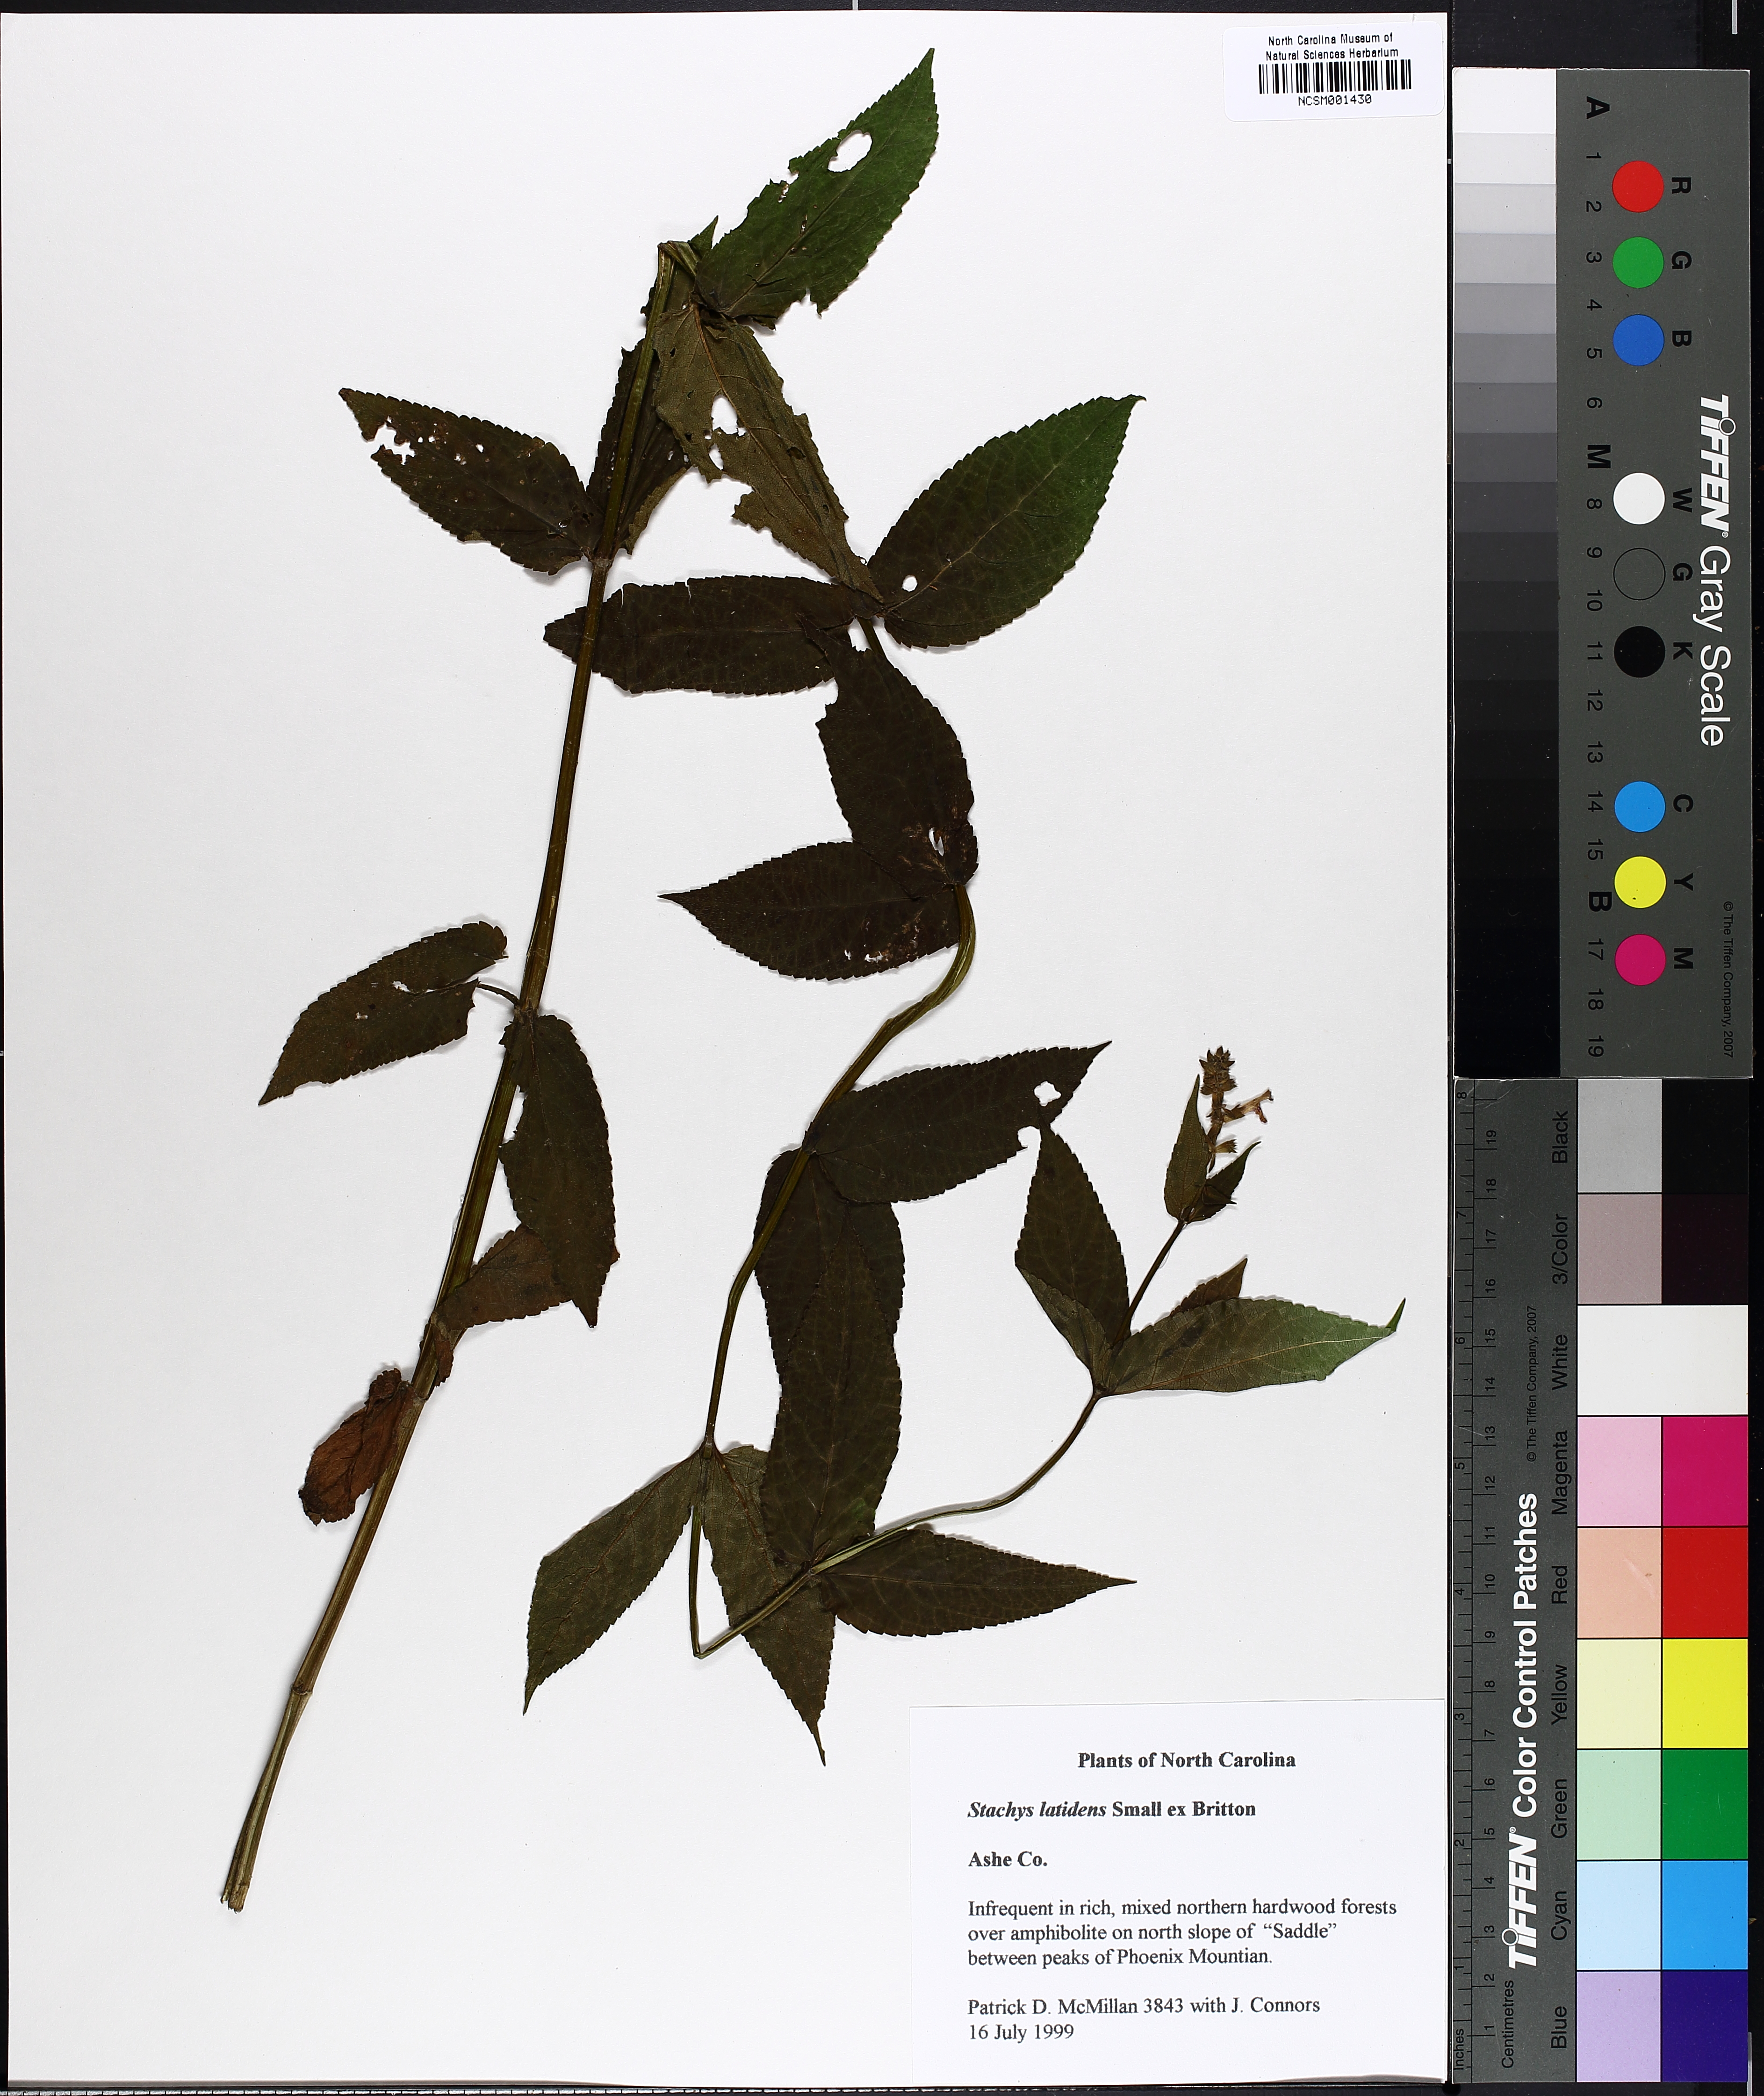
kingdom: Plantae
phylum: Tracheophyta
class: Magnoliopsida
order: Lamiales
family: Lamiaceae
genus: Stachys
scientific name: Stachys latidens
